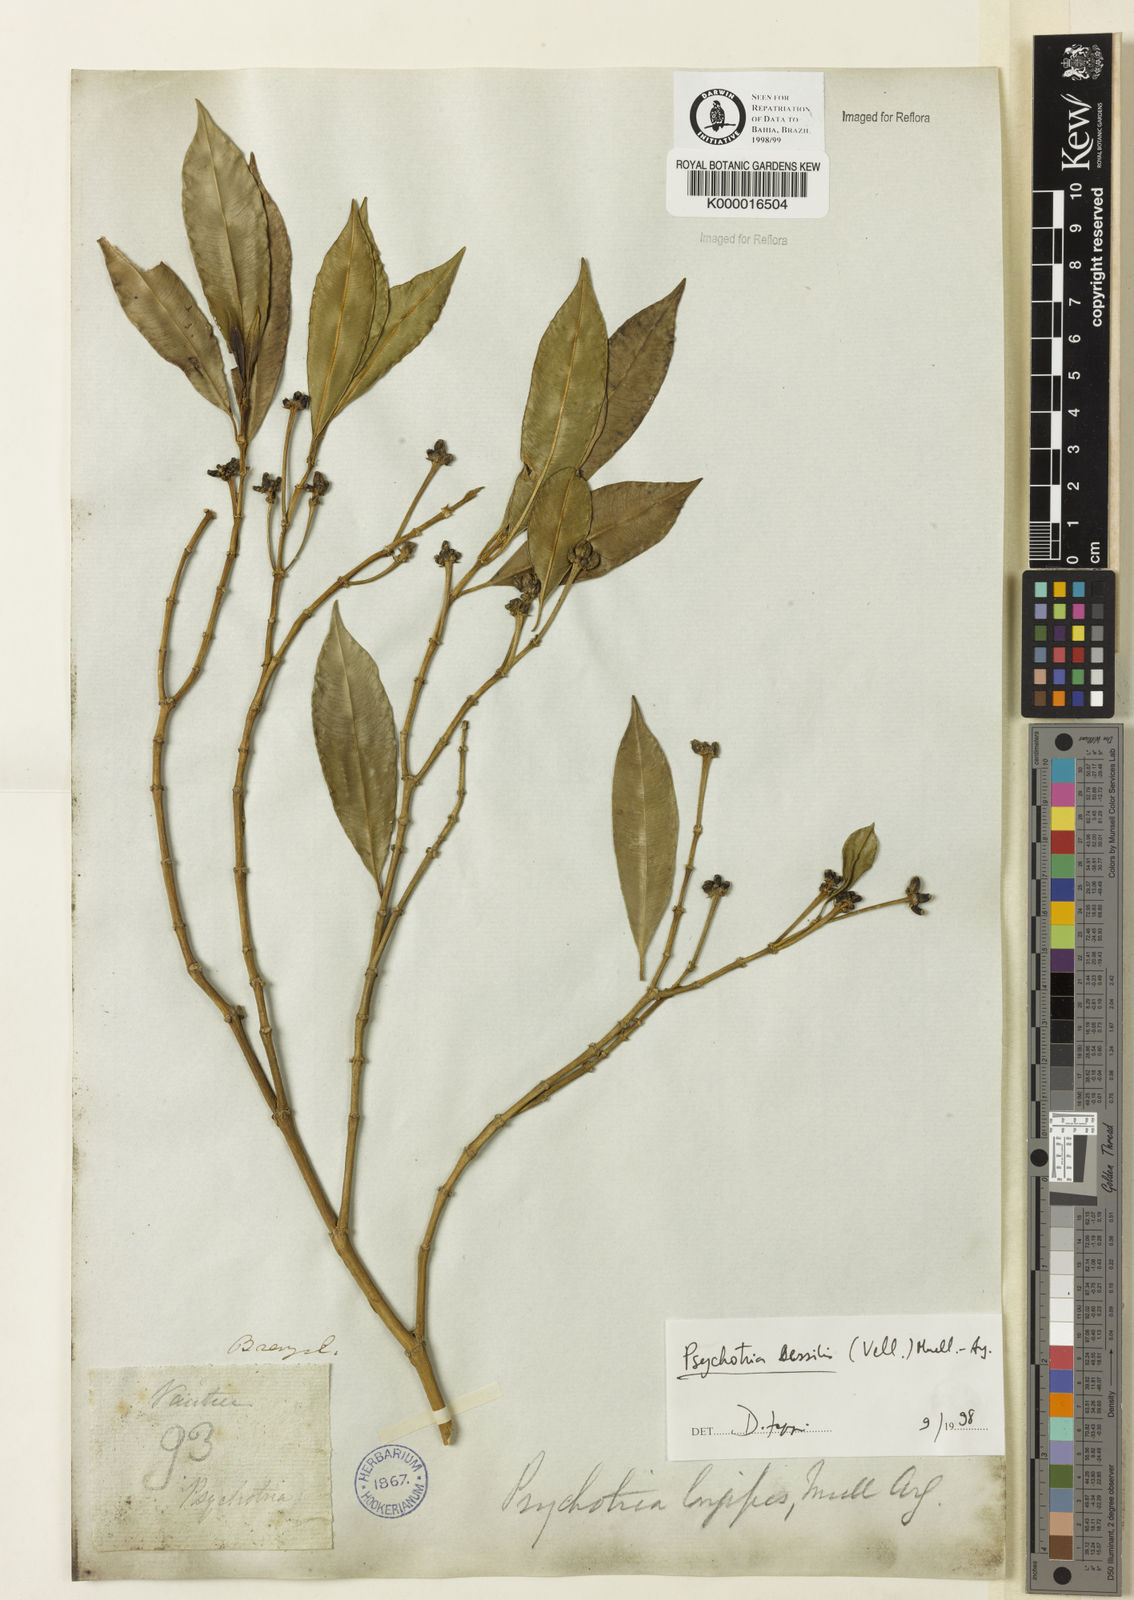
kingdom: Plantae
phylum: Tracheophyta
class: Magnoliopsida
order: Gentianales
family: Rubiaceae
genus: Psychotria
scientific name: Psychotria
